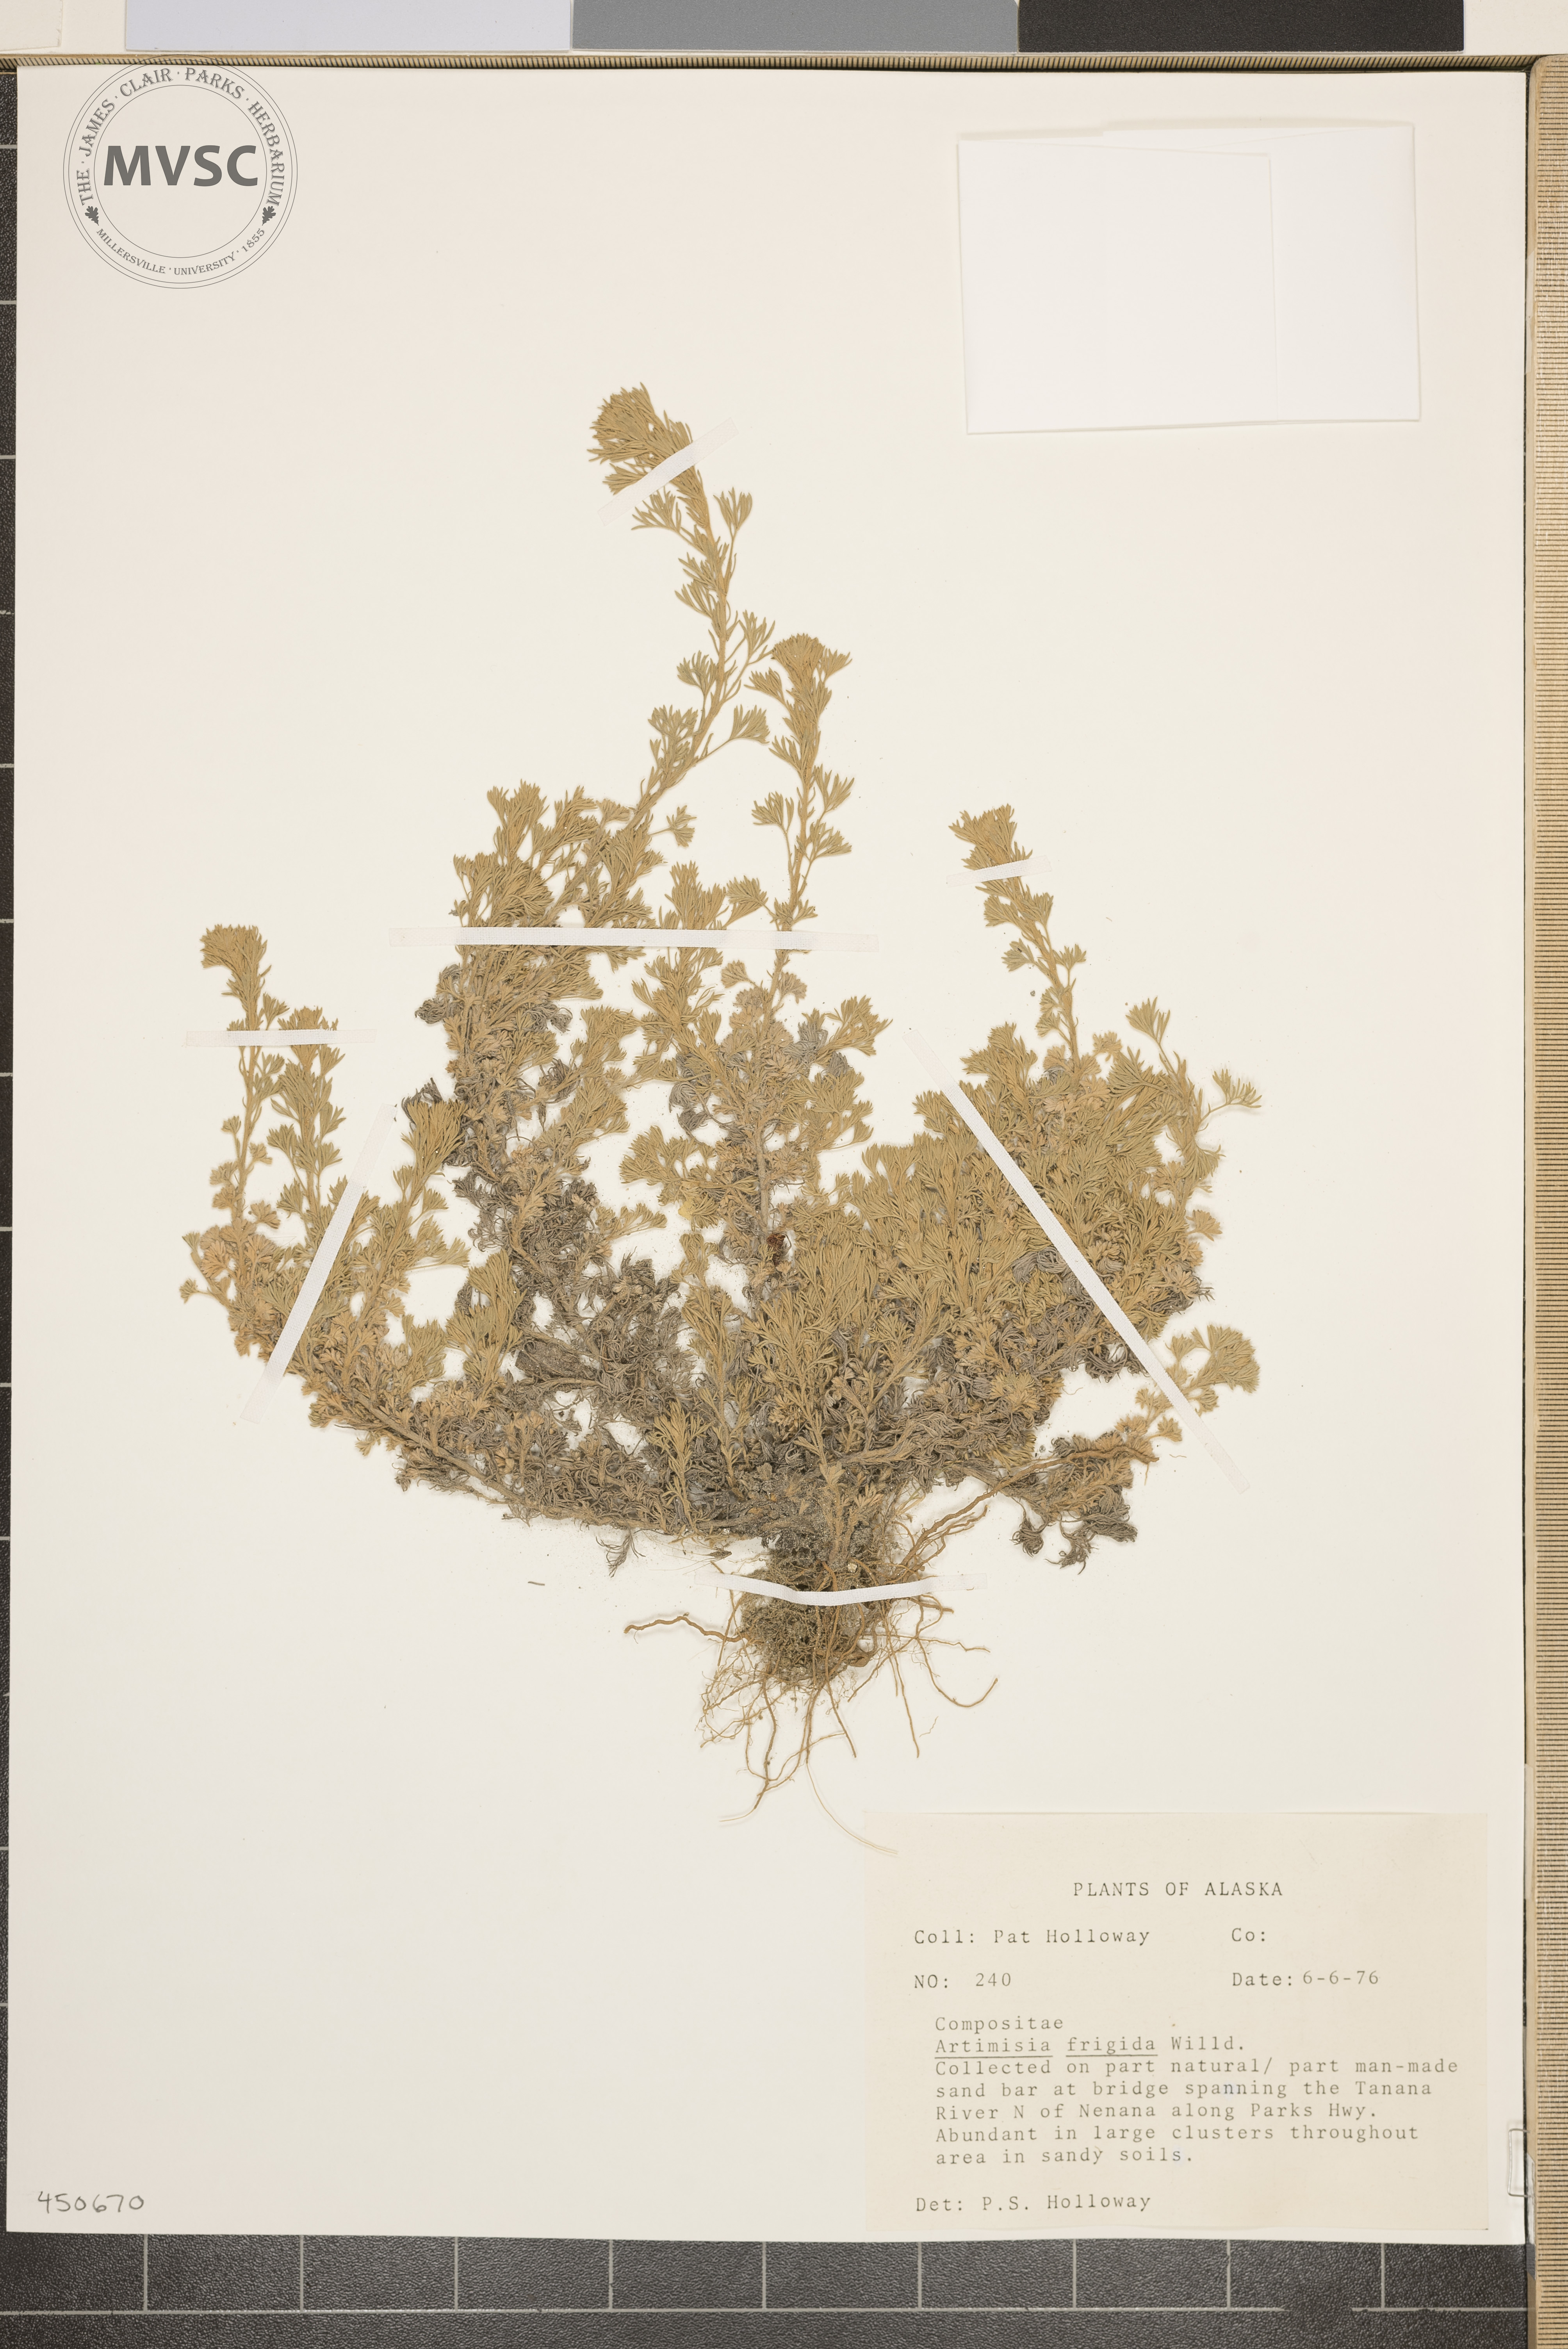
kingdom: Plantae
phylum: Tracheophyta
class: Magnoliopsida
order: Asterales
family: Asteraceae
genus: Artemisia
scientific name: Artemisia frigida
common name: Prairie sagewort
